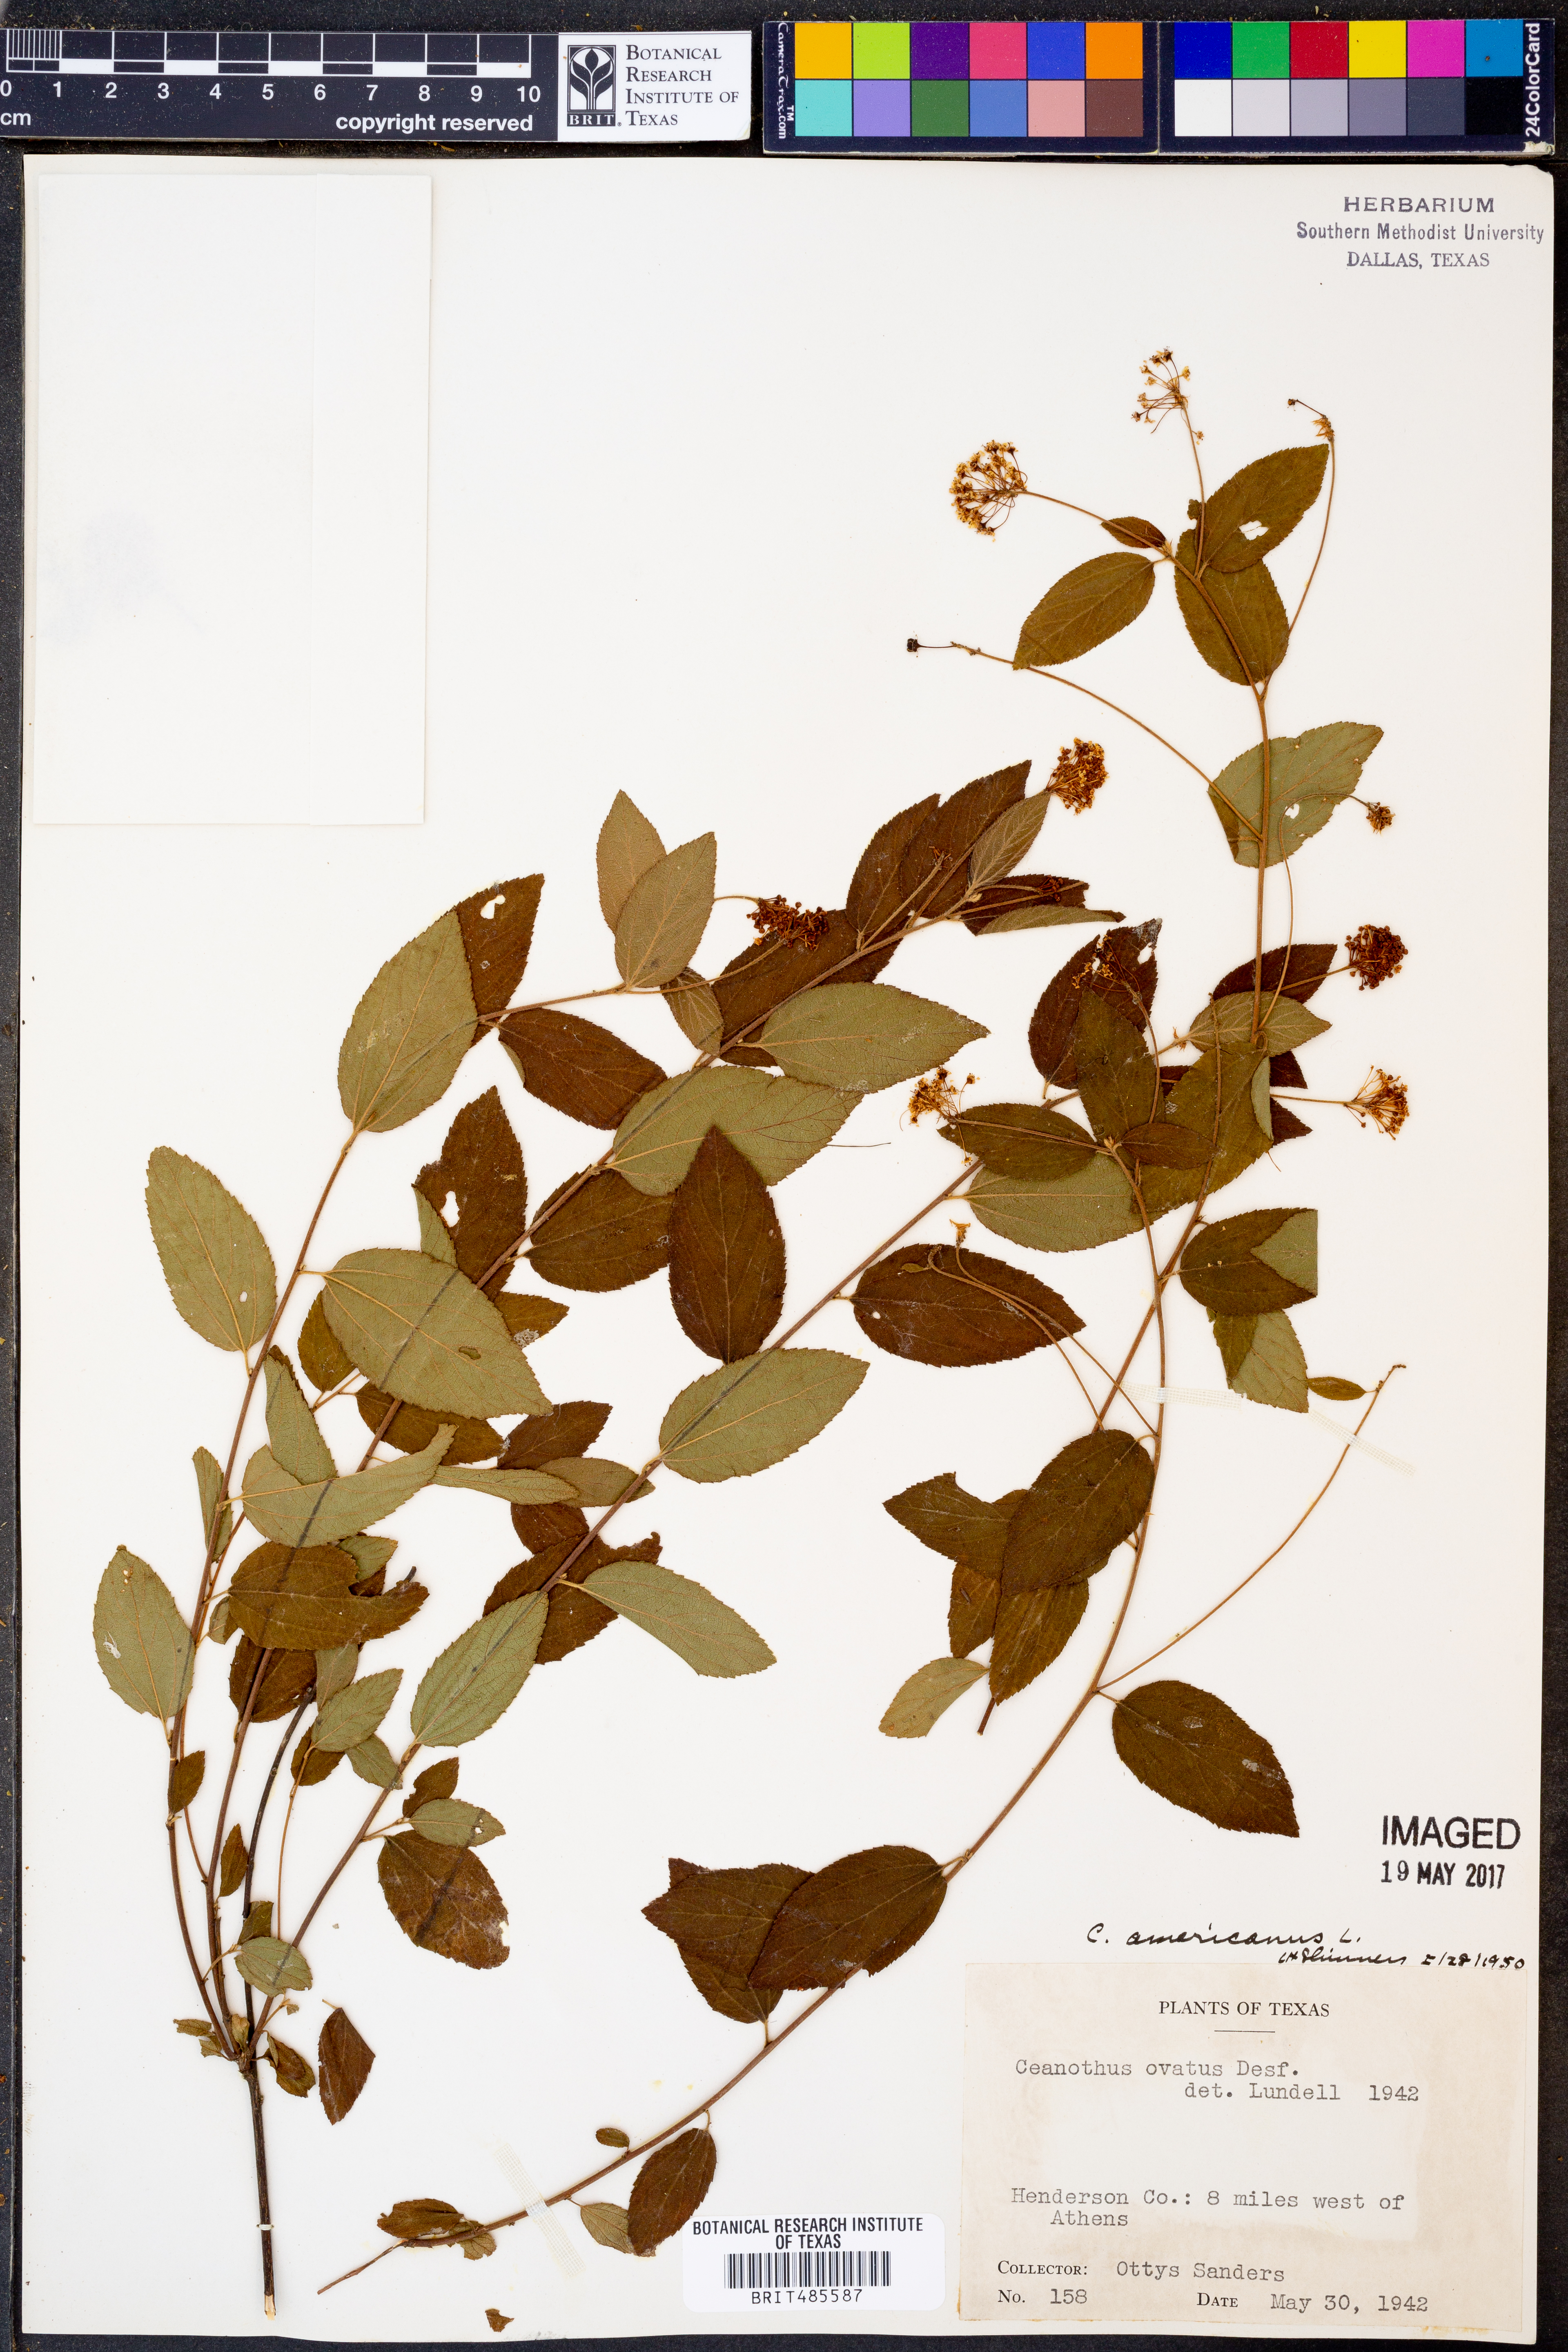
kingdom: Plantae
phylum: Tracheophyta
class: Magnoliopsida
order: Rosales
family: Rhamnaceae
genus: Ceanothus
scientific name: Ceanothus americanus
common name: Redroot
